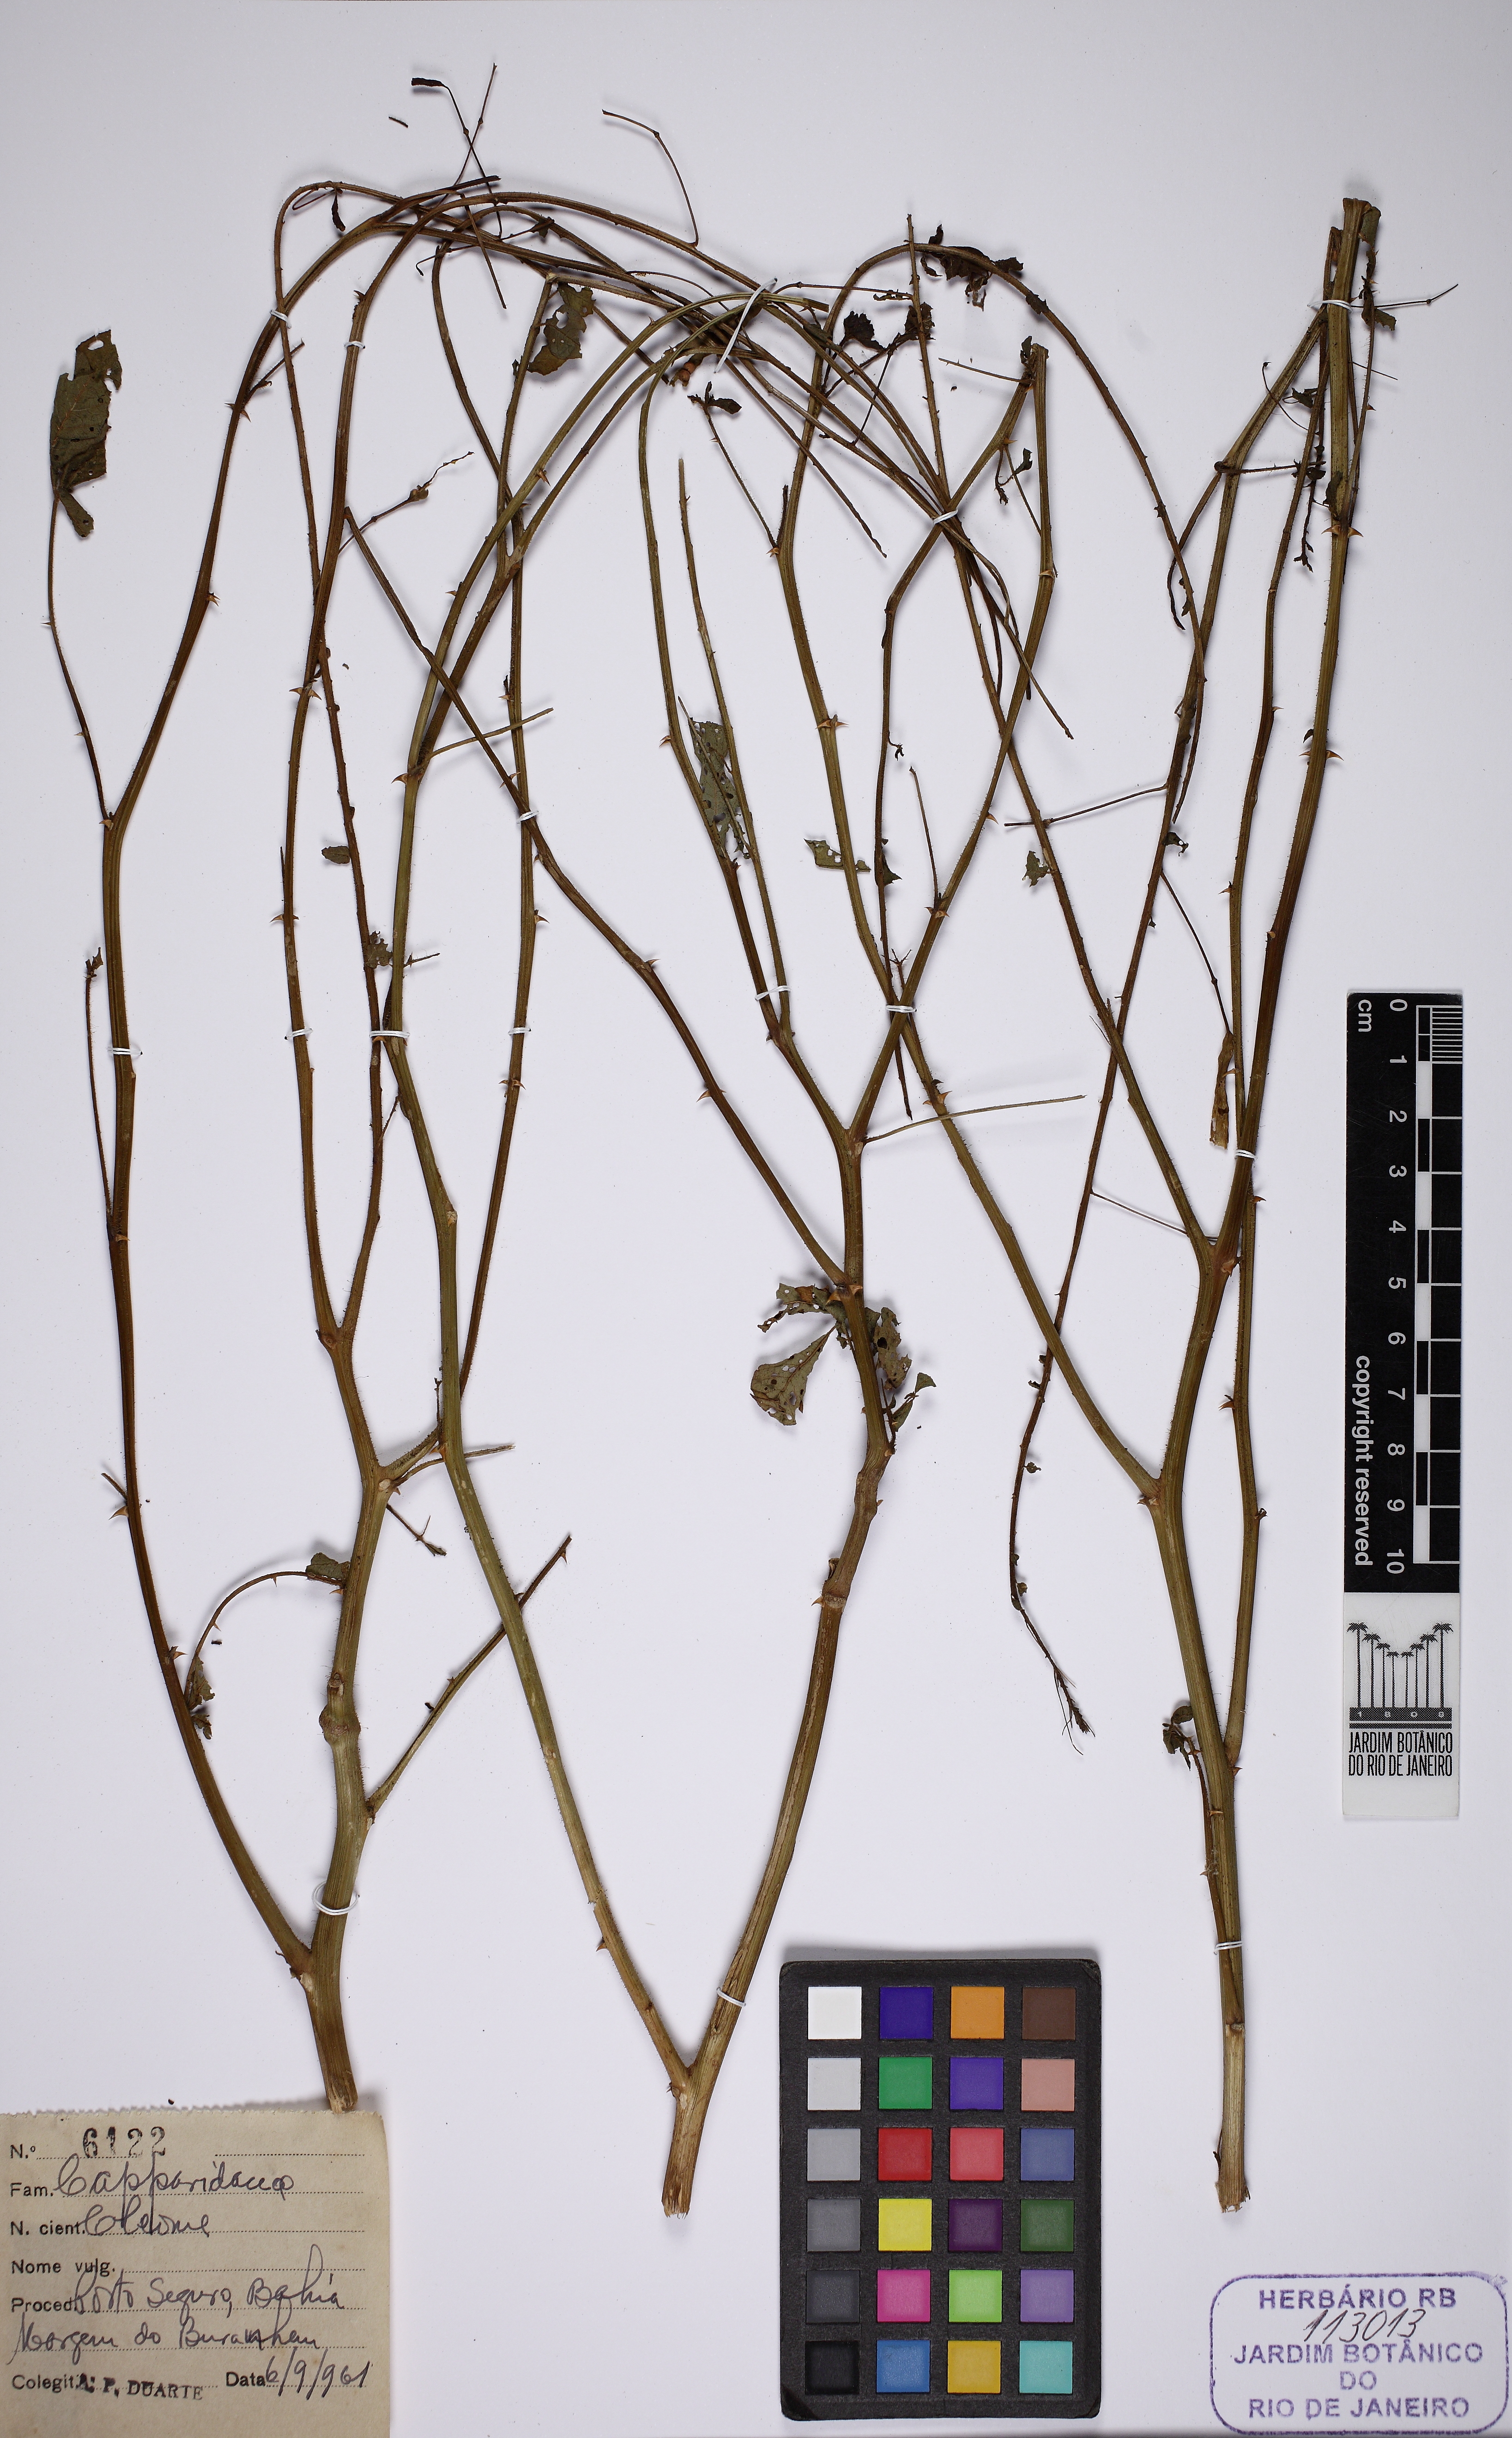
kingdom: Plantae
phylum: Tracheophyta
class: Magnoliopsida
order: Brassicales
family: Cleomaceae
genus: Tarenaya
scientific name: Tarenaya parviflora
